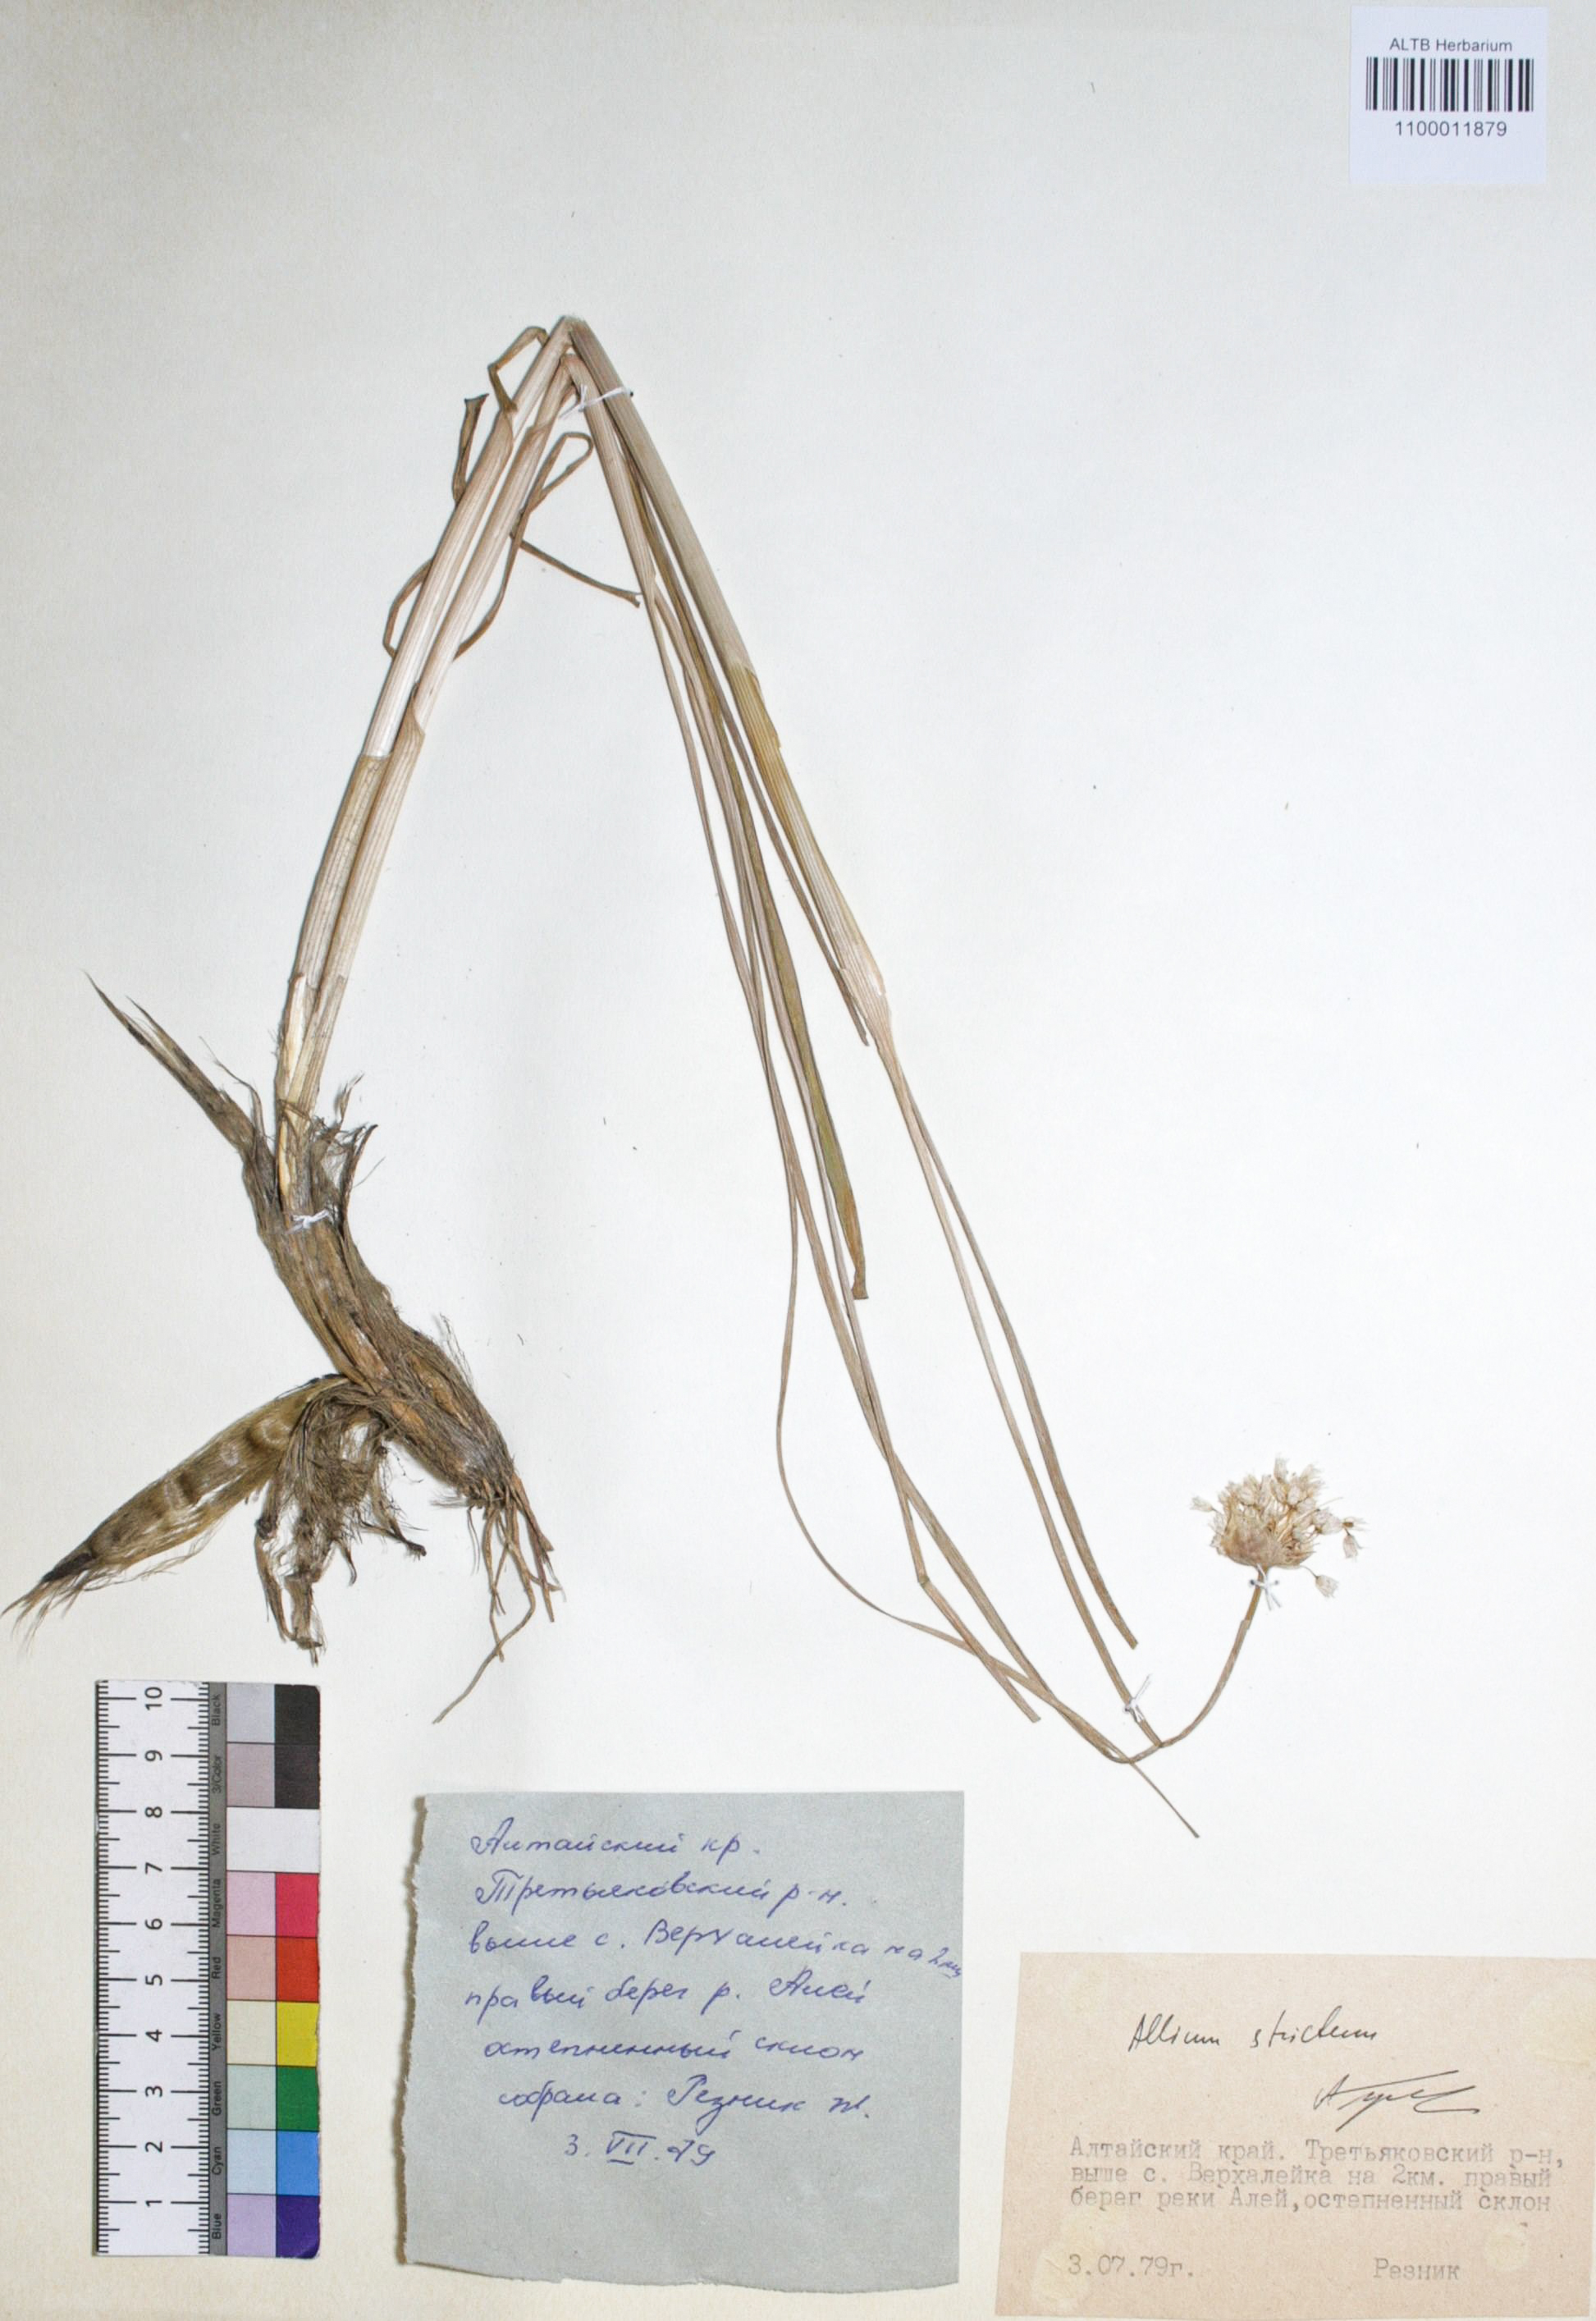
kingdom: Plantae
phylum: Tracheophyta
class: Liliopsida
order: Asparagales
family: Amaryllidaceae
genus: Allium
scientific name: Allium strictum
